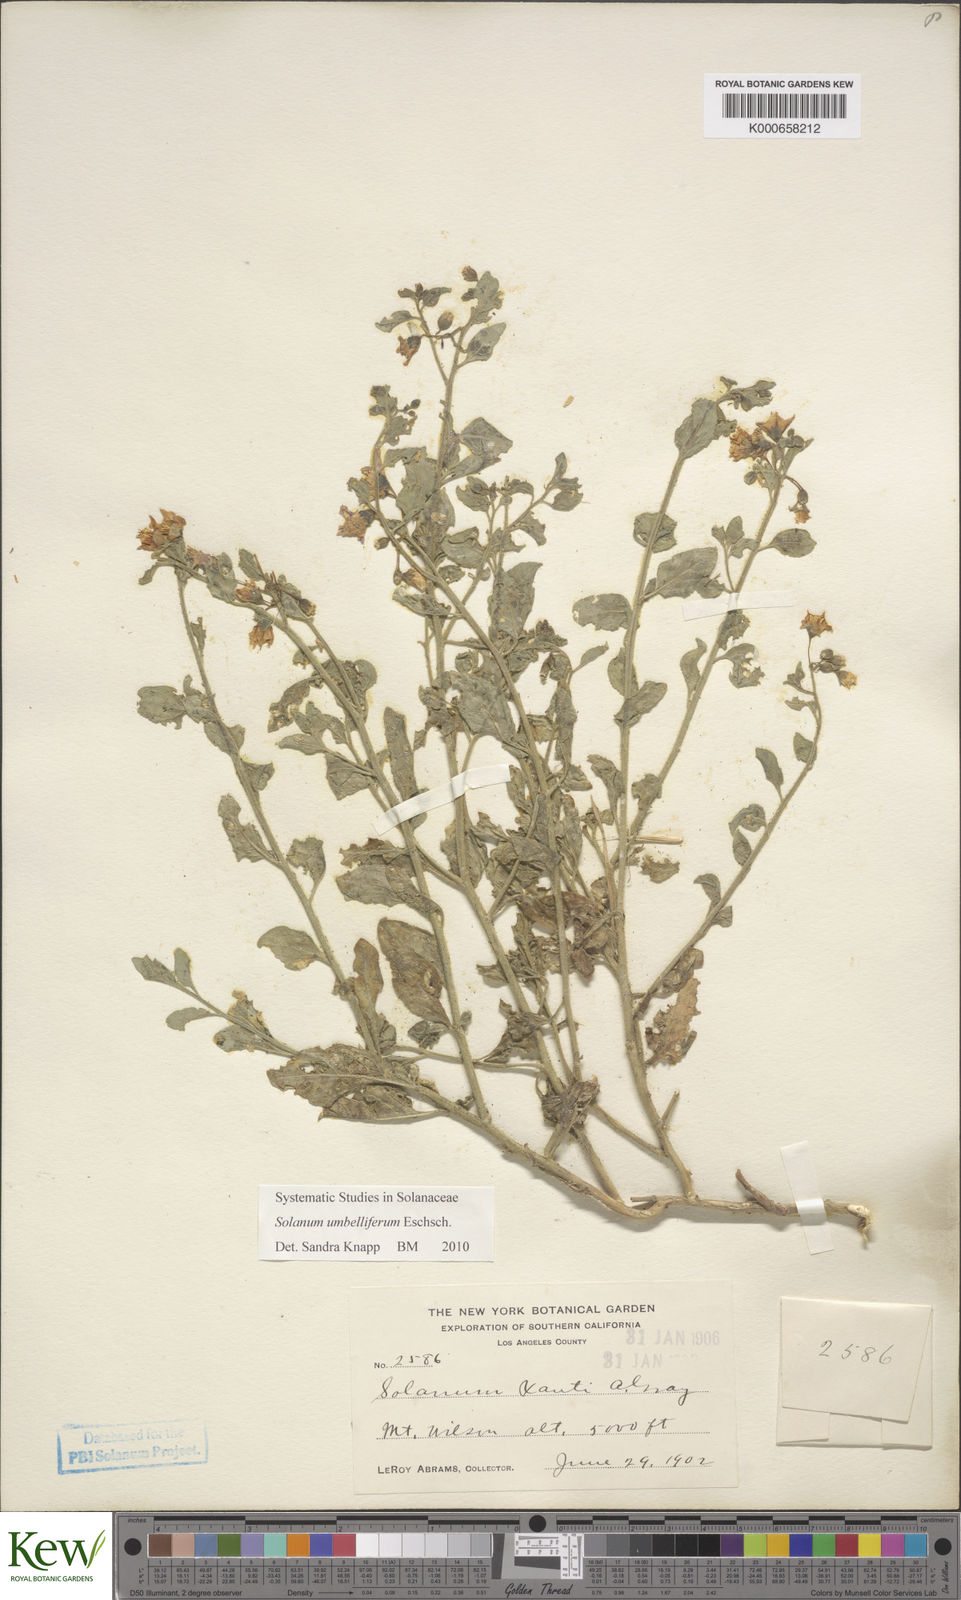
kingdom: Plantae
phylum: Tracheophyta
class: Magnoliopsida
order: Solanales
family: Solanaceae
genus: Solanum
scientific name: Solanum umbelliferum
